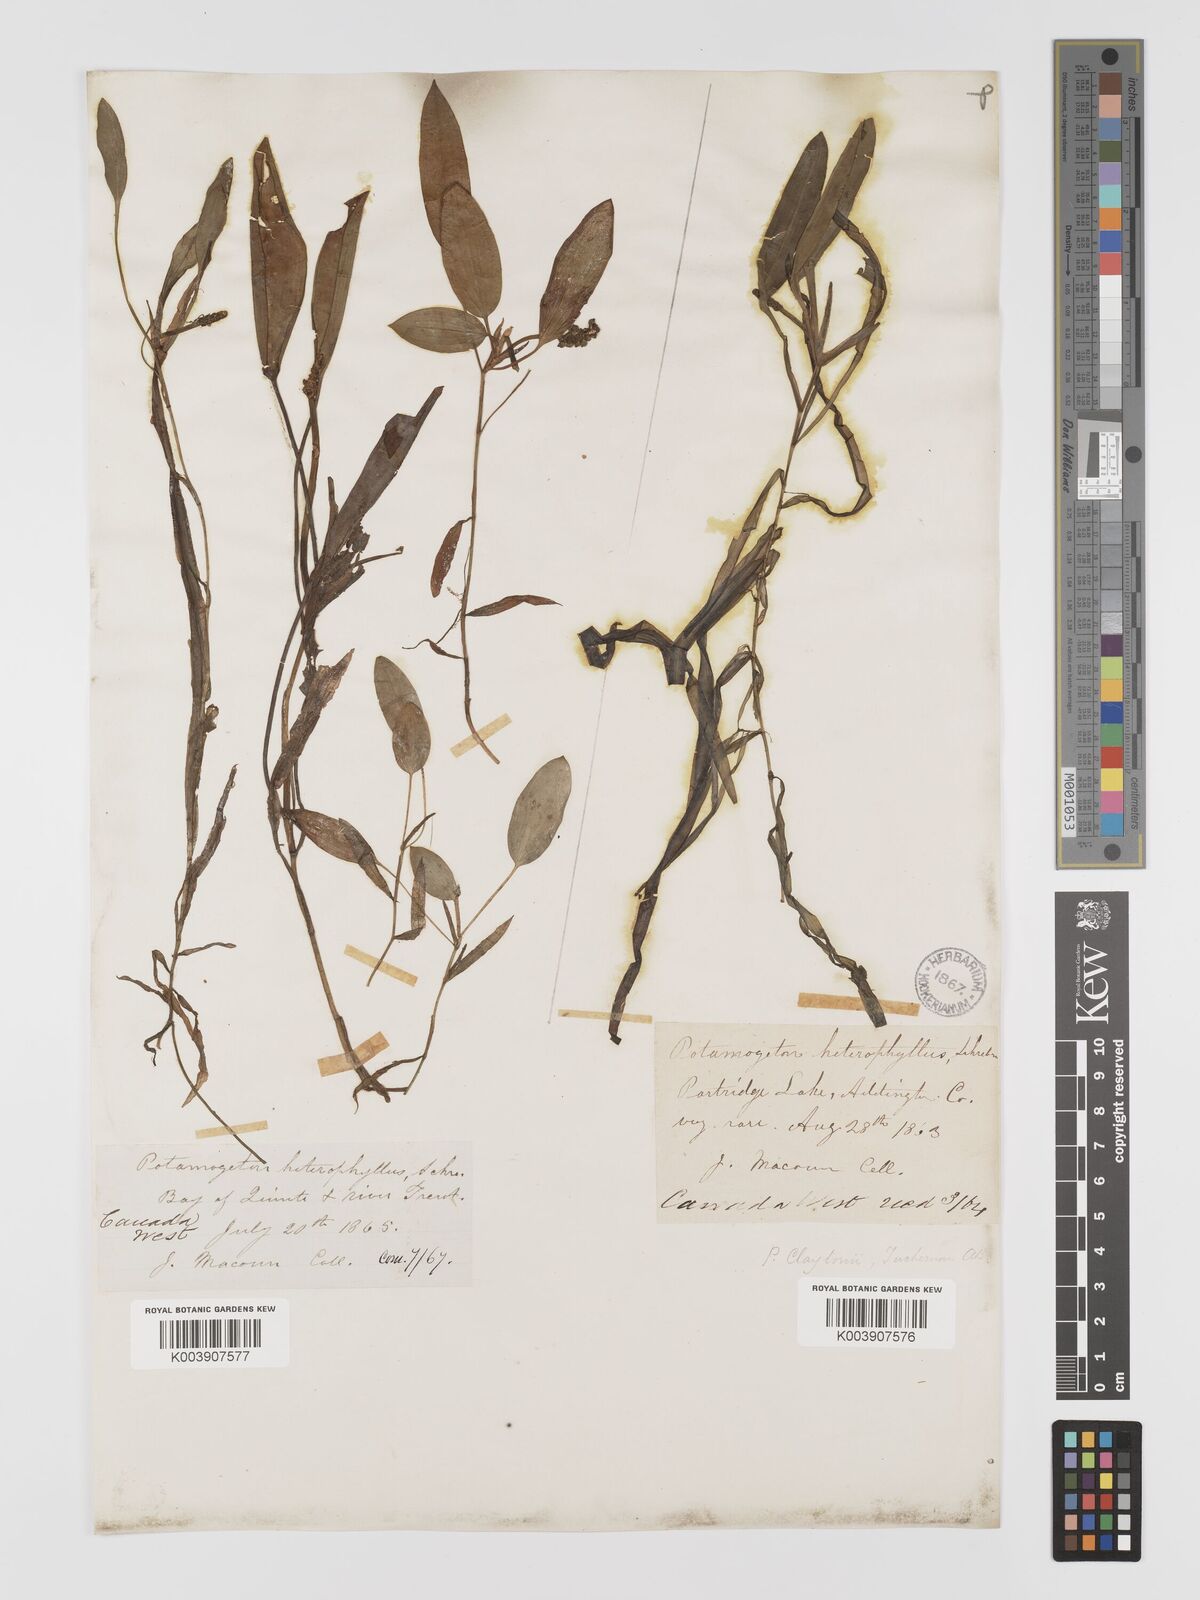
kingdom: Plantae
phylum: Tracheophyta
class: Liliopsida
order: Alismatales
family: Potamogetonaceae
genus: Potamogeton
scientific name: Potamogeton epihydrus
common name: American pondweed
